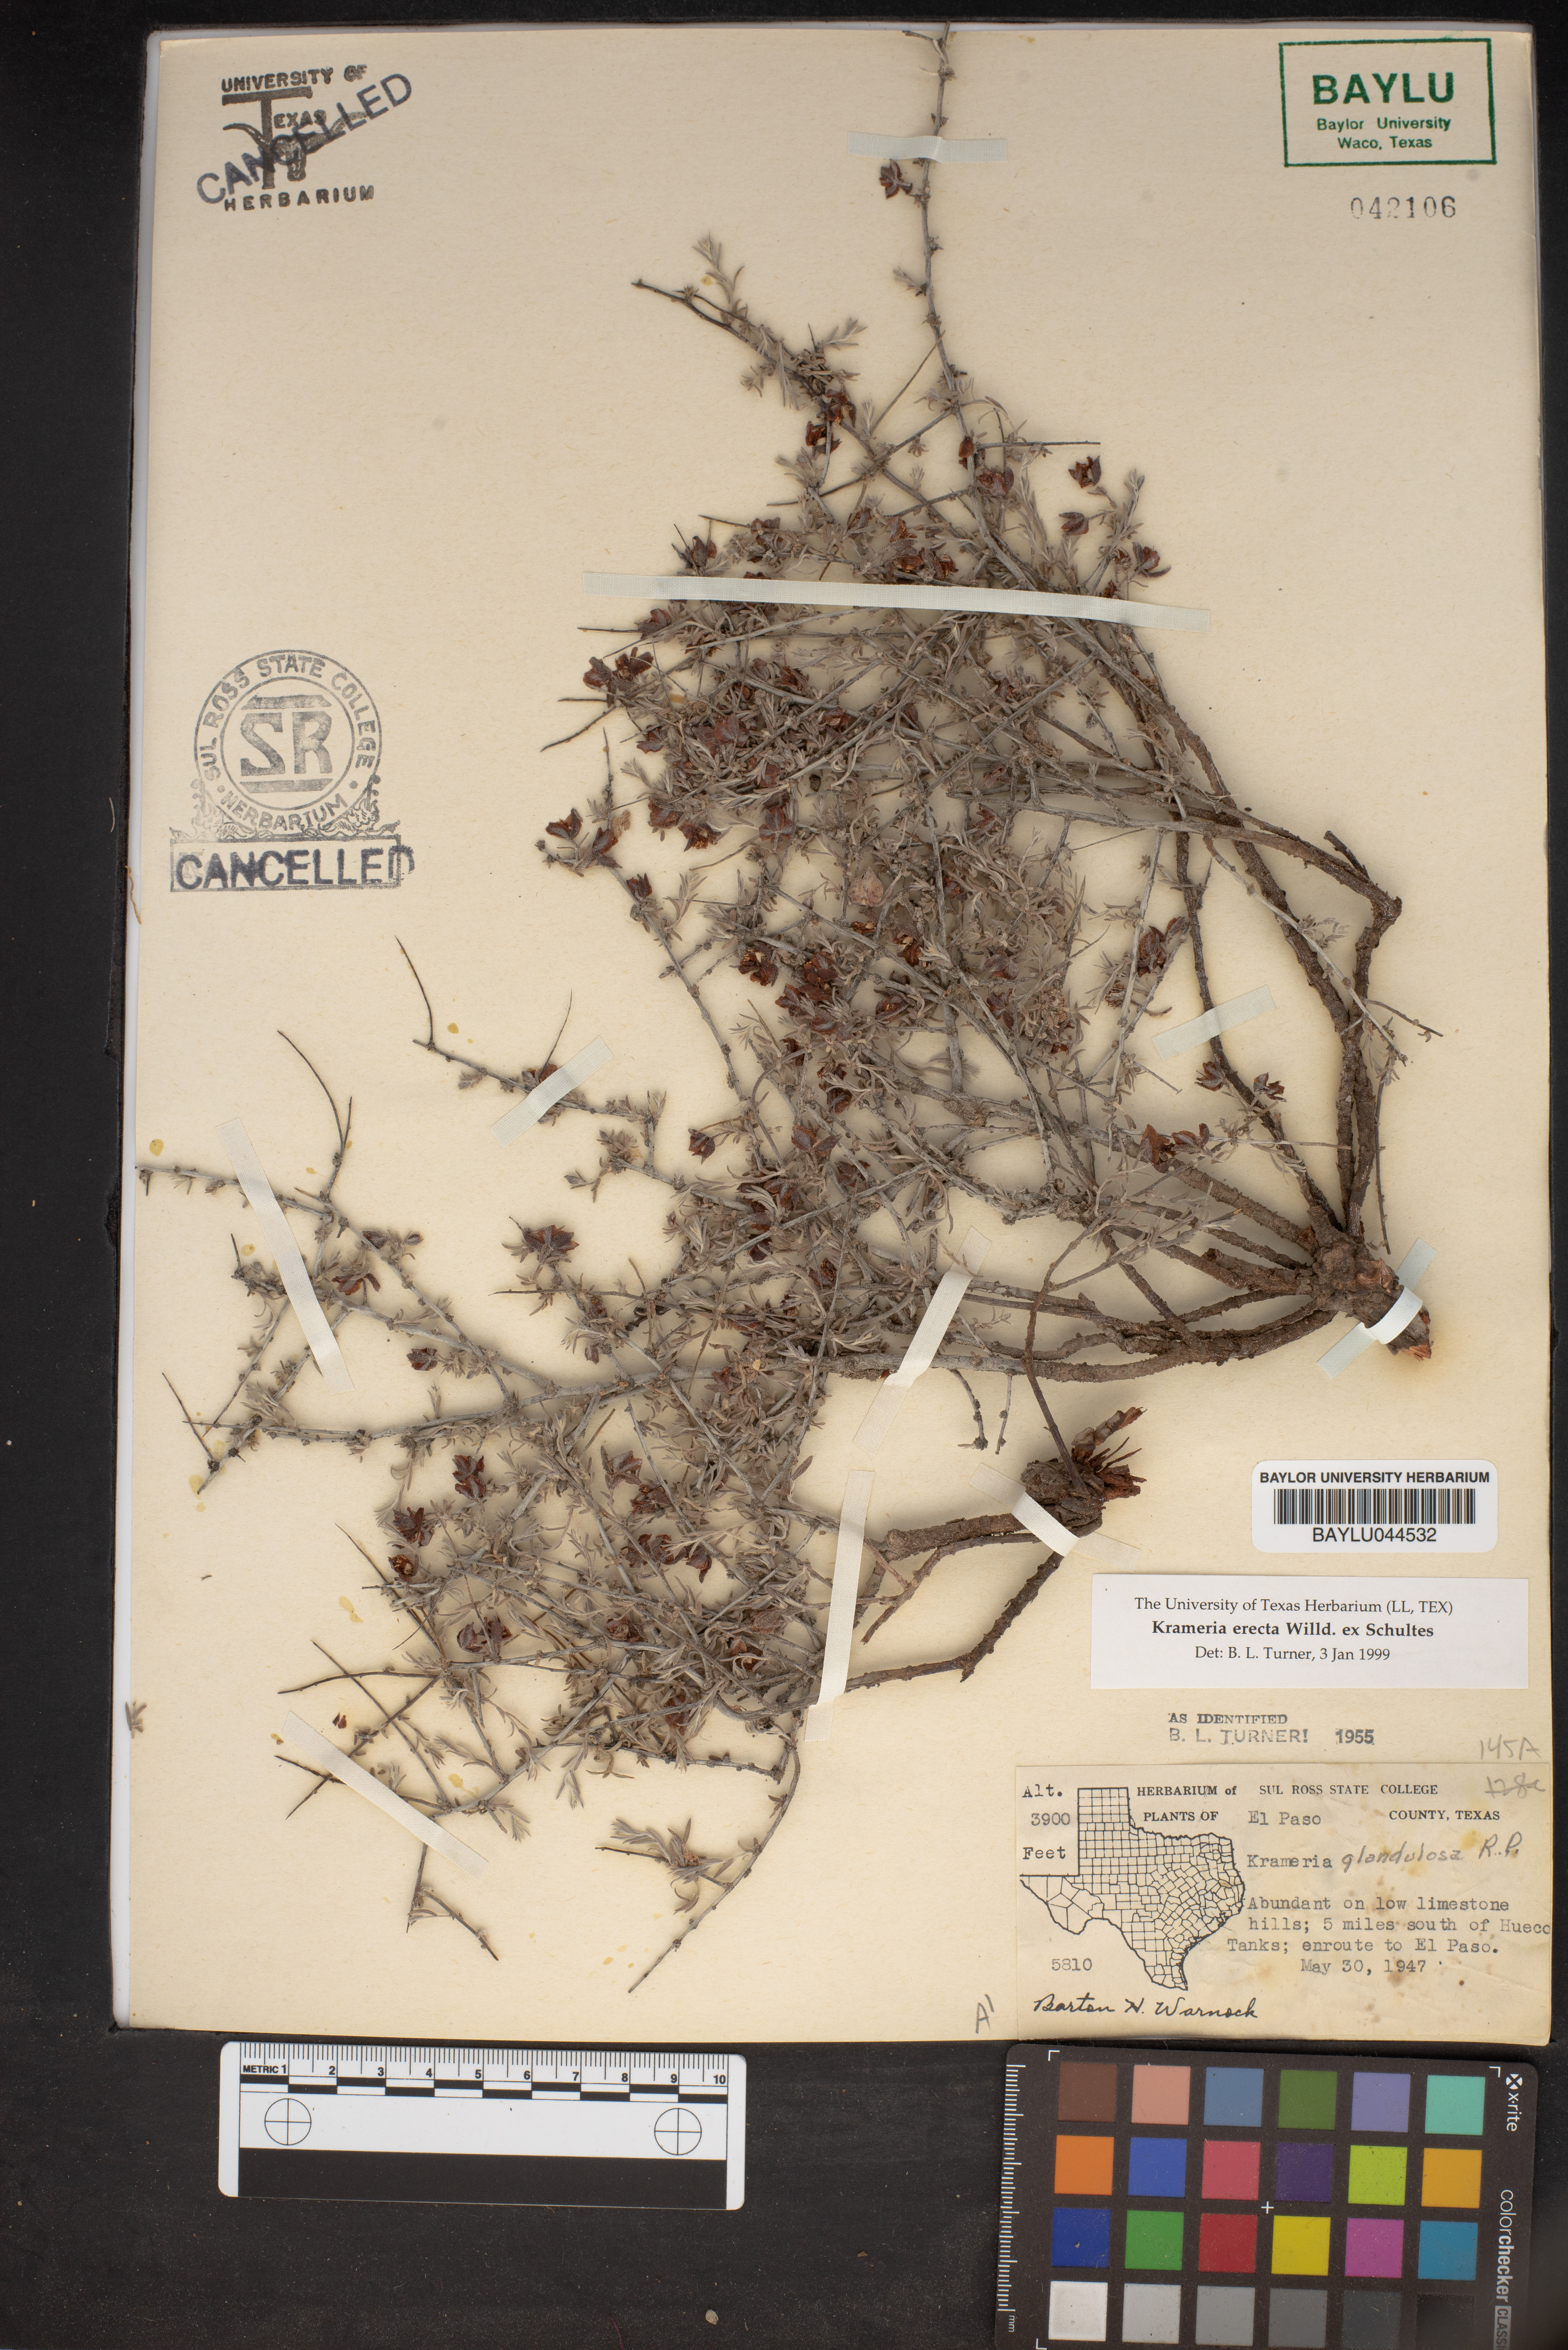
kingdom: Plantae
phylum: Tracheophyta
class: Magnoliopsida
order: Zygophyllales
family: Krameriaceae
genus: Krameria
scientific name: Krameria erecta
